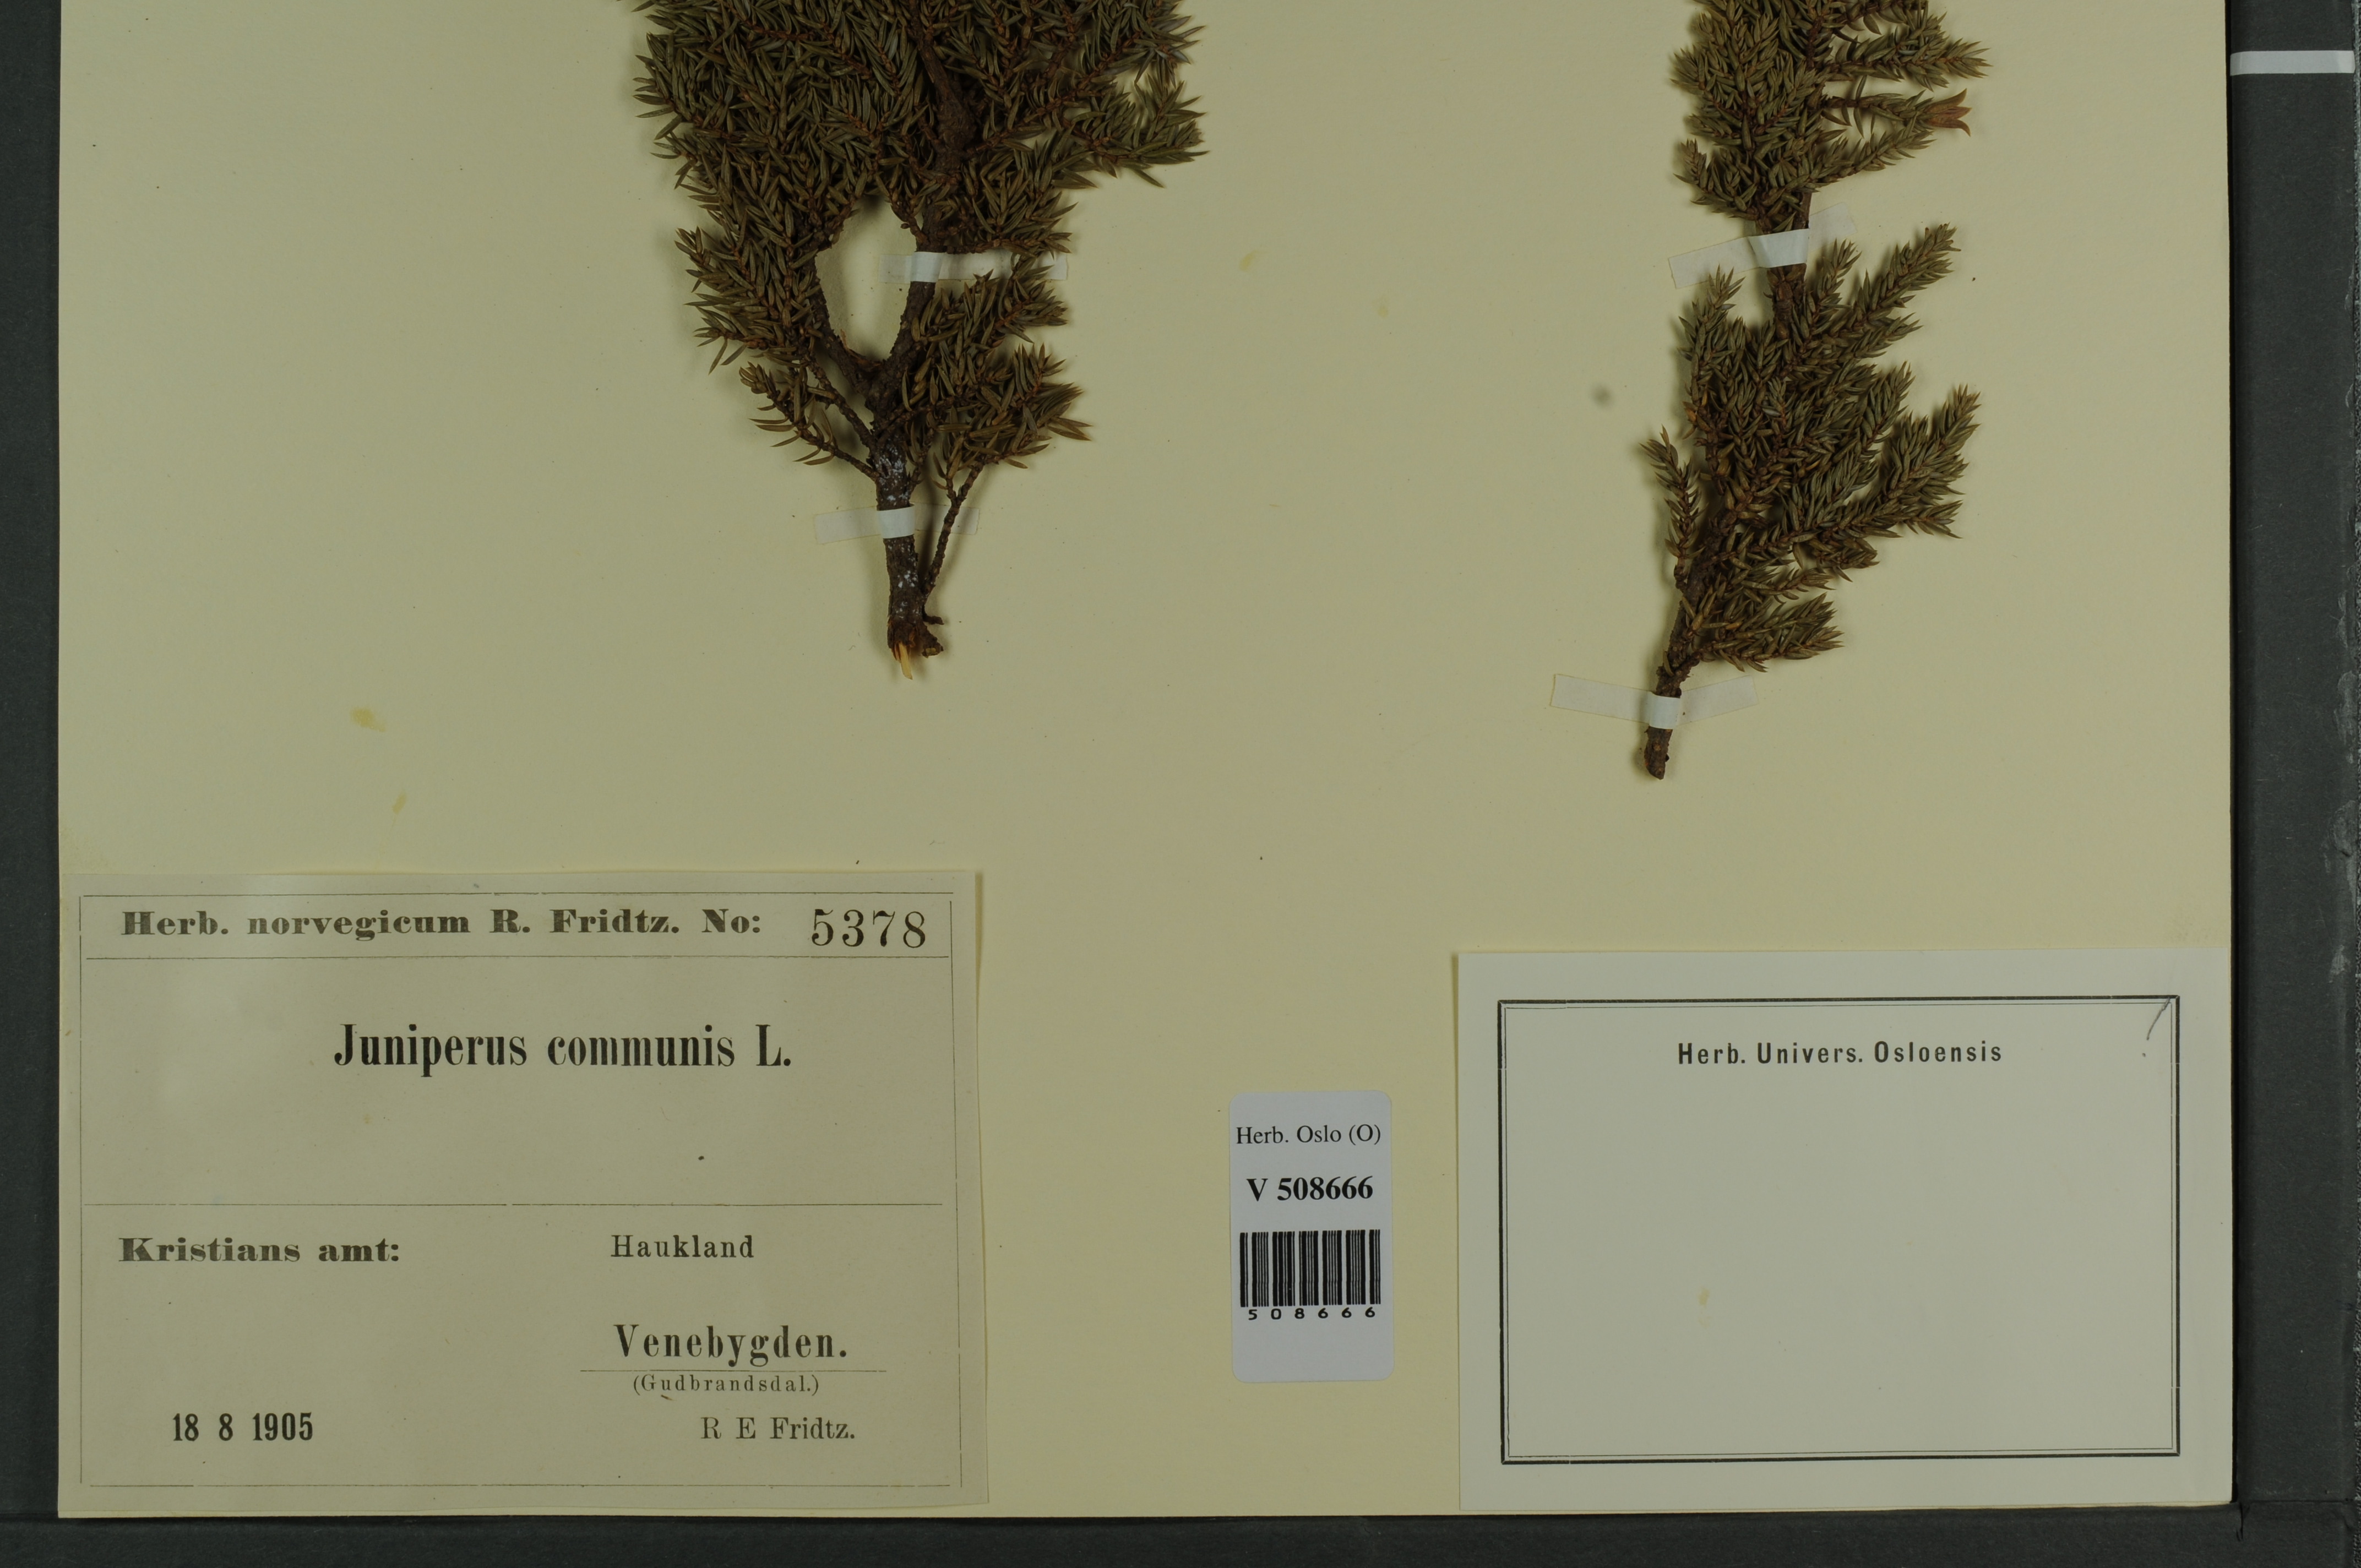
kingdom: Plantae
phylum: Tracheophyta
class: Pinopsida
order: Pinales
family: Cupressaceae
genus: Juniperus
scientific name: Juniperus communis
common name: Common juniper
